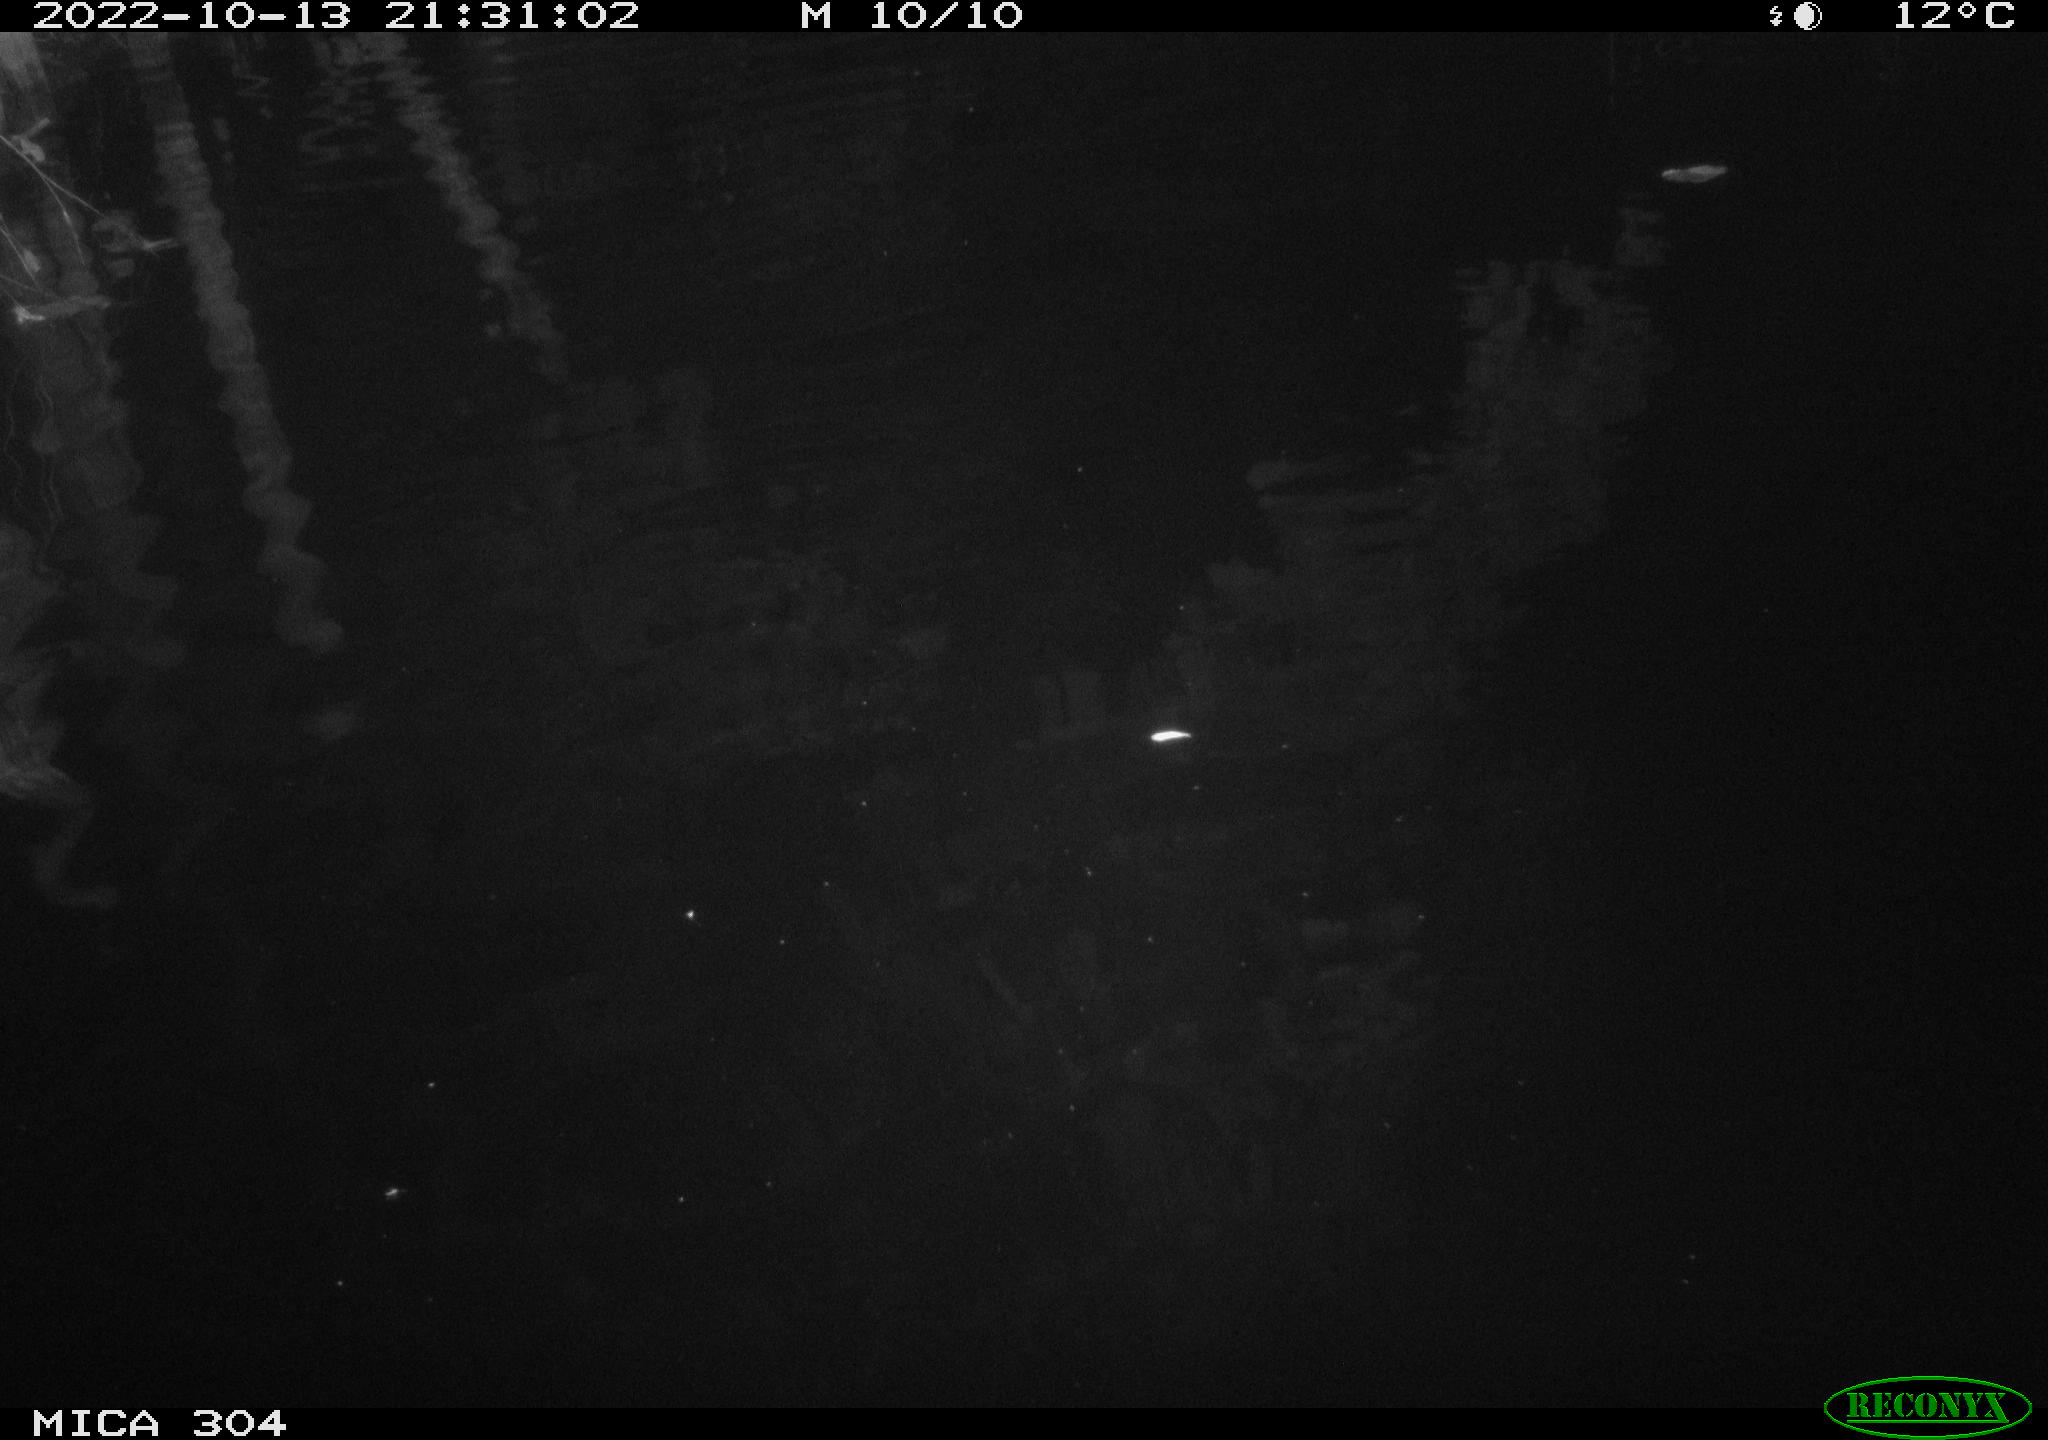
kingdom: Animalia
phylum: Chordata
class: Mammalia
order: Rodentia
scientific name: Rodentia
